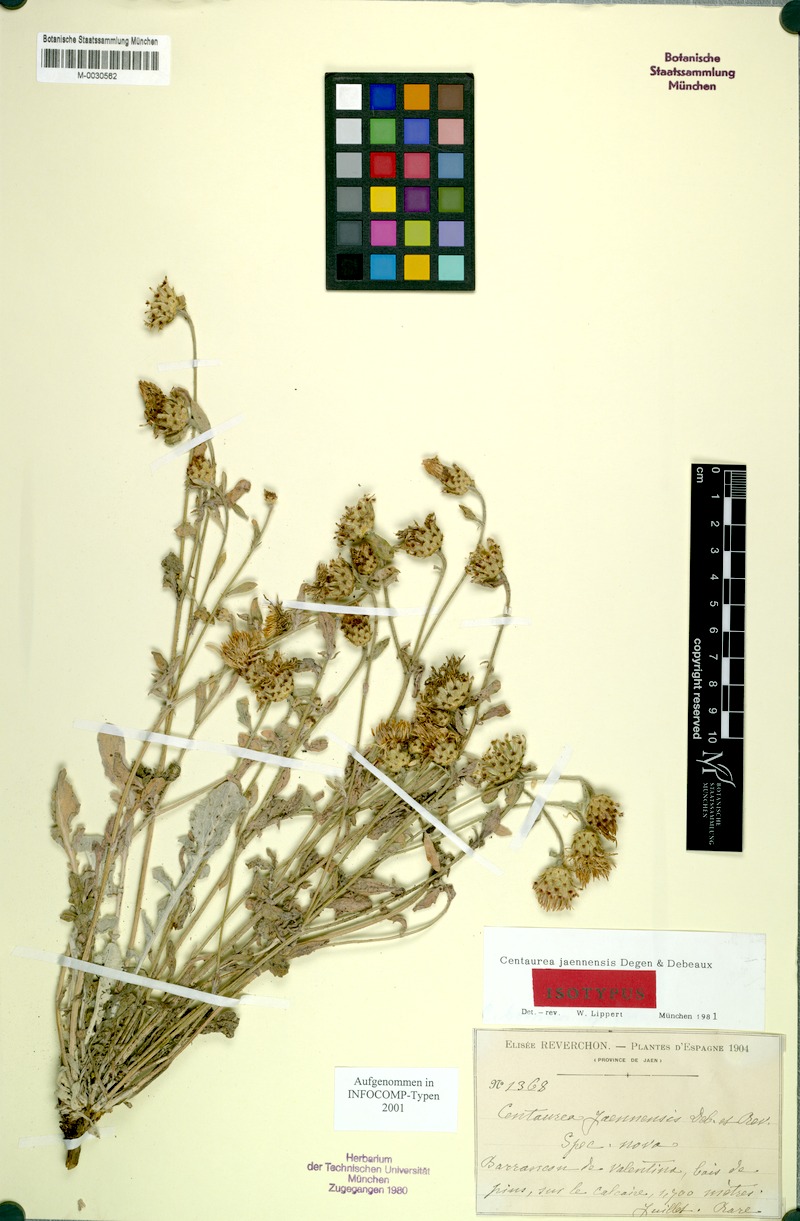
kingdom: Plantae
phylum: Tracheophyta
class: Magnoliopsida
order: Asterales
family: Asteraceae
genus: Centaurea
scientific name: Centaurea jaennensis
